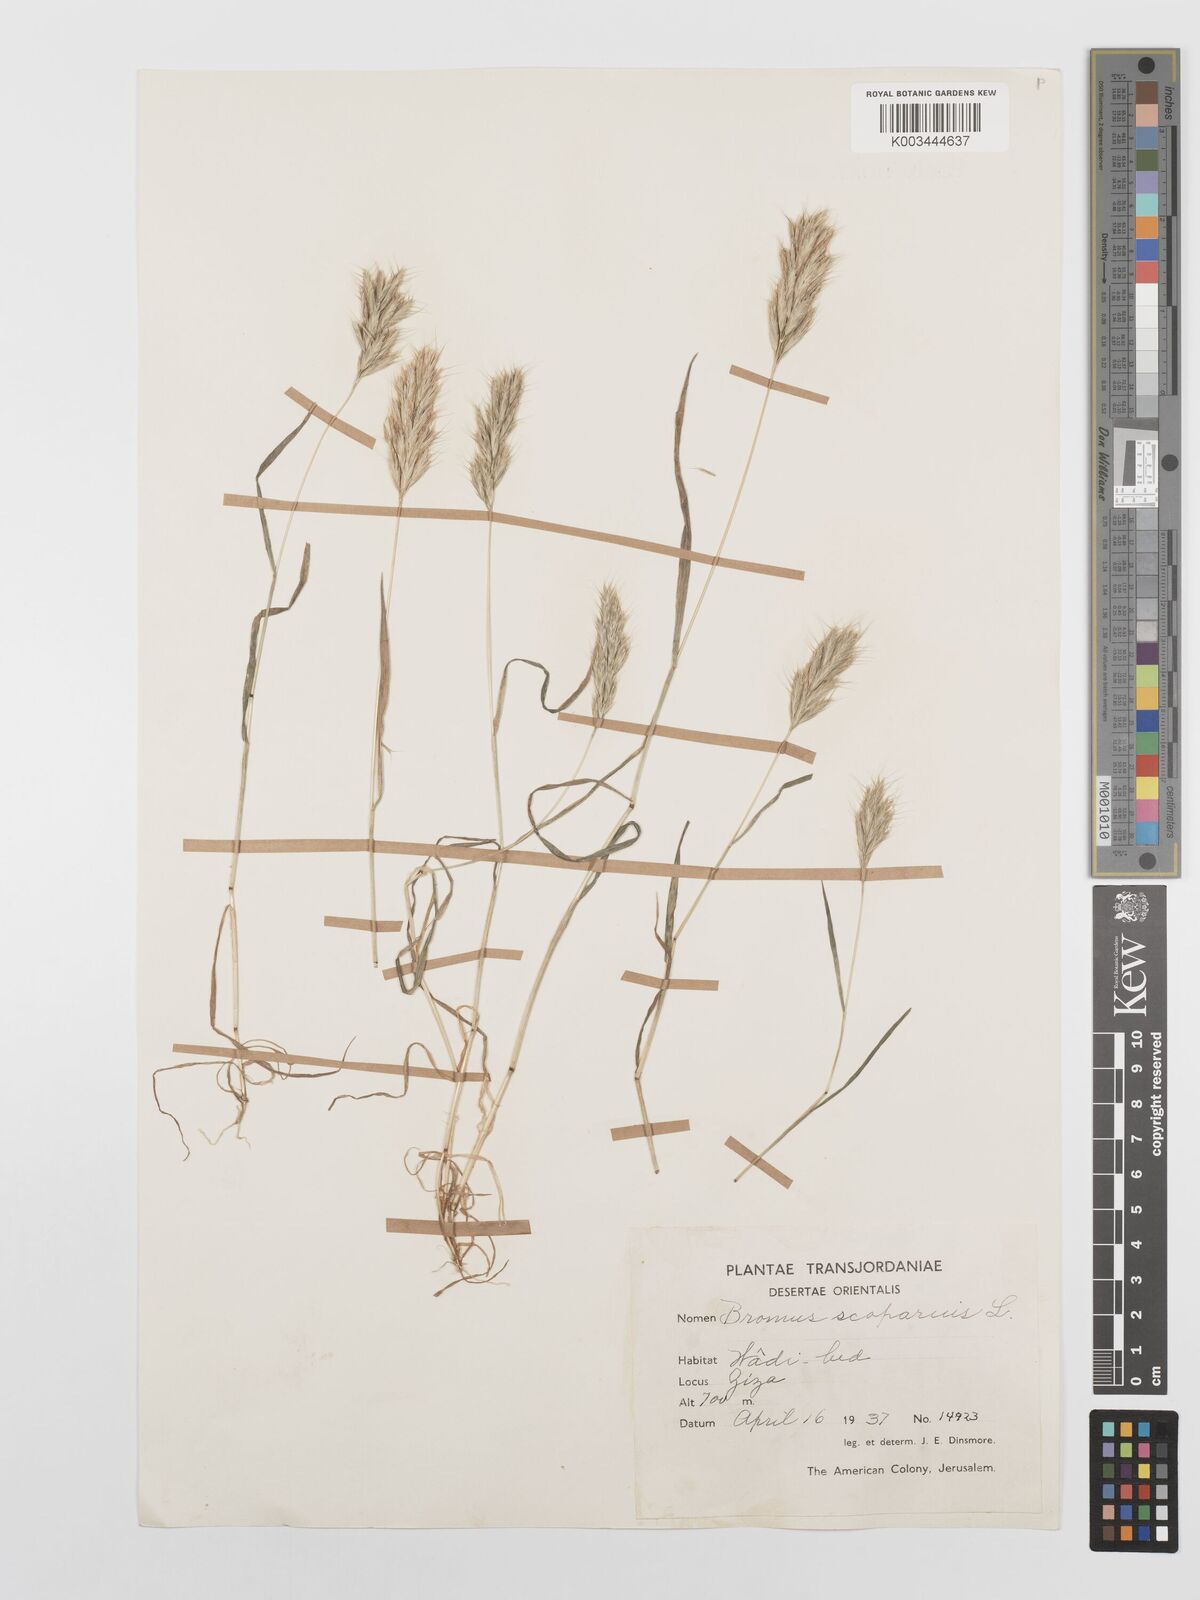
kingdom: Plantae
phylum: Tracheophyta
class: Liliopsida
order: Poales
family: Poaceae
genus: Bromus
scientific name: Bromus scoparius
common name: Broom brome
